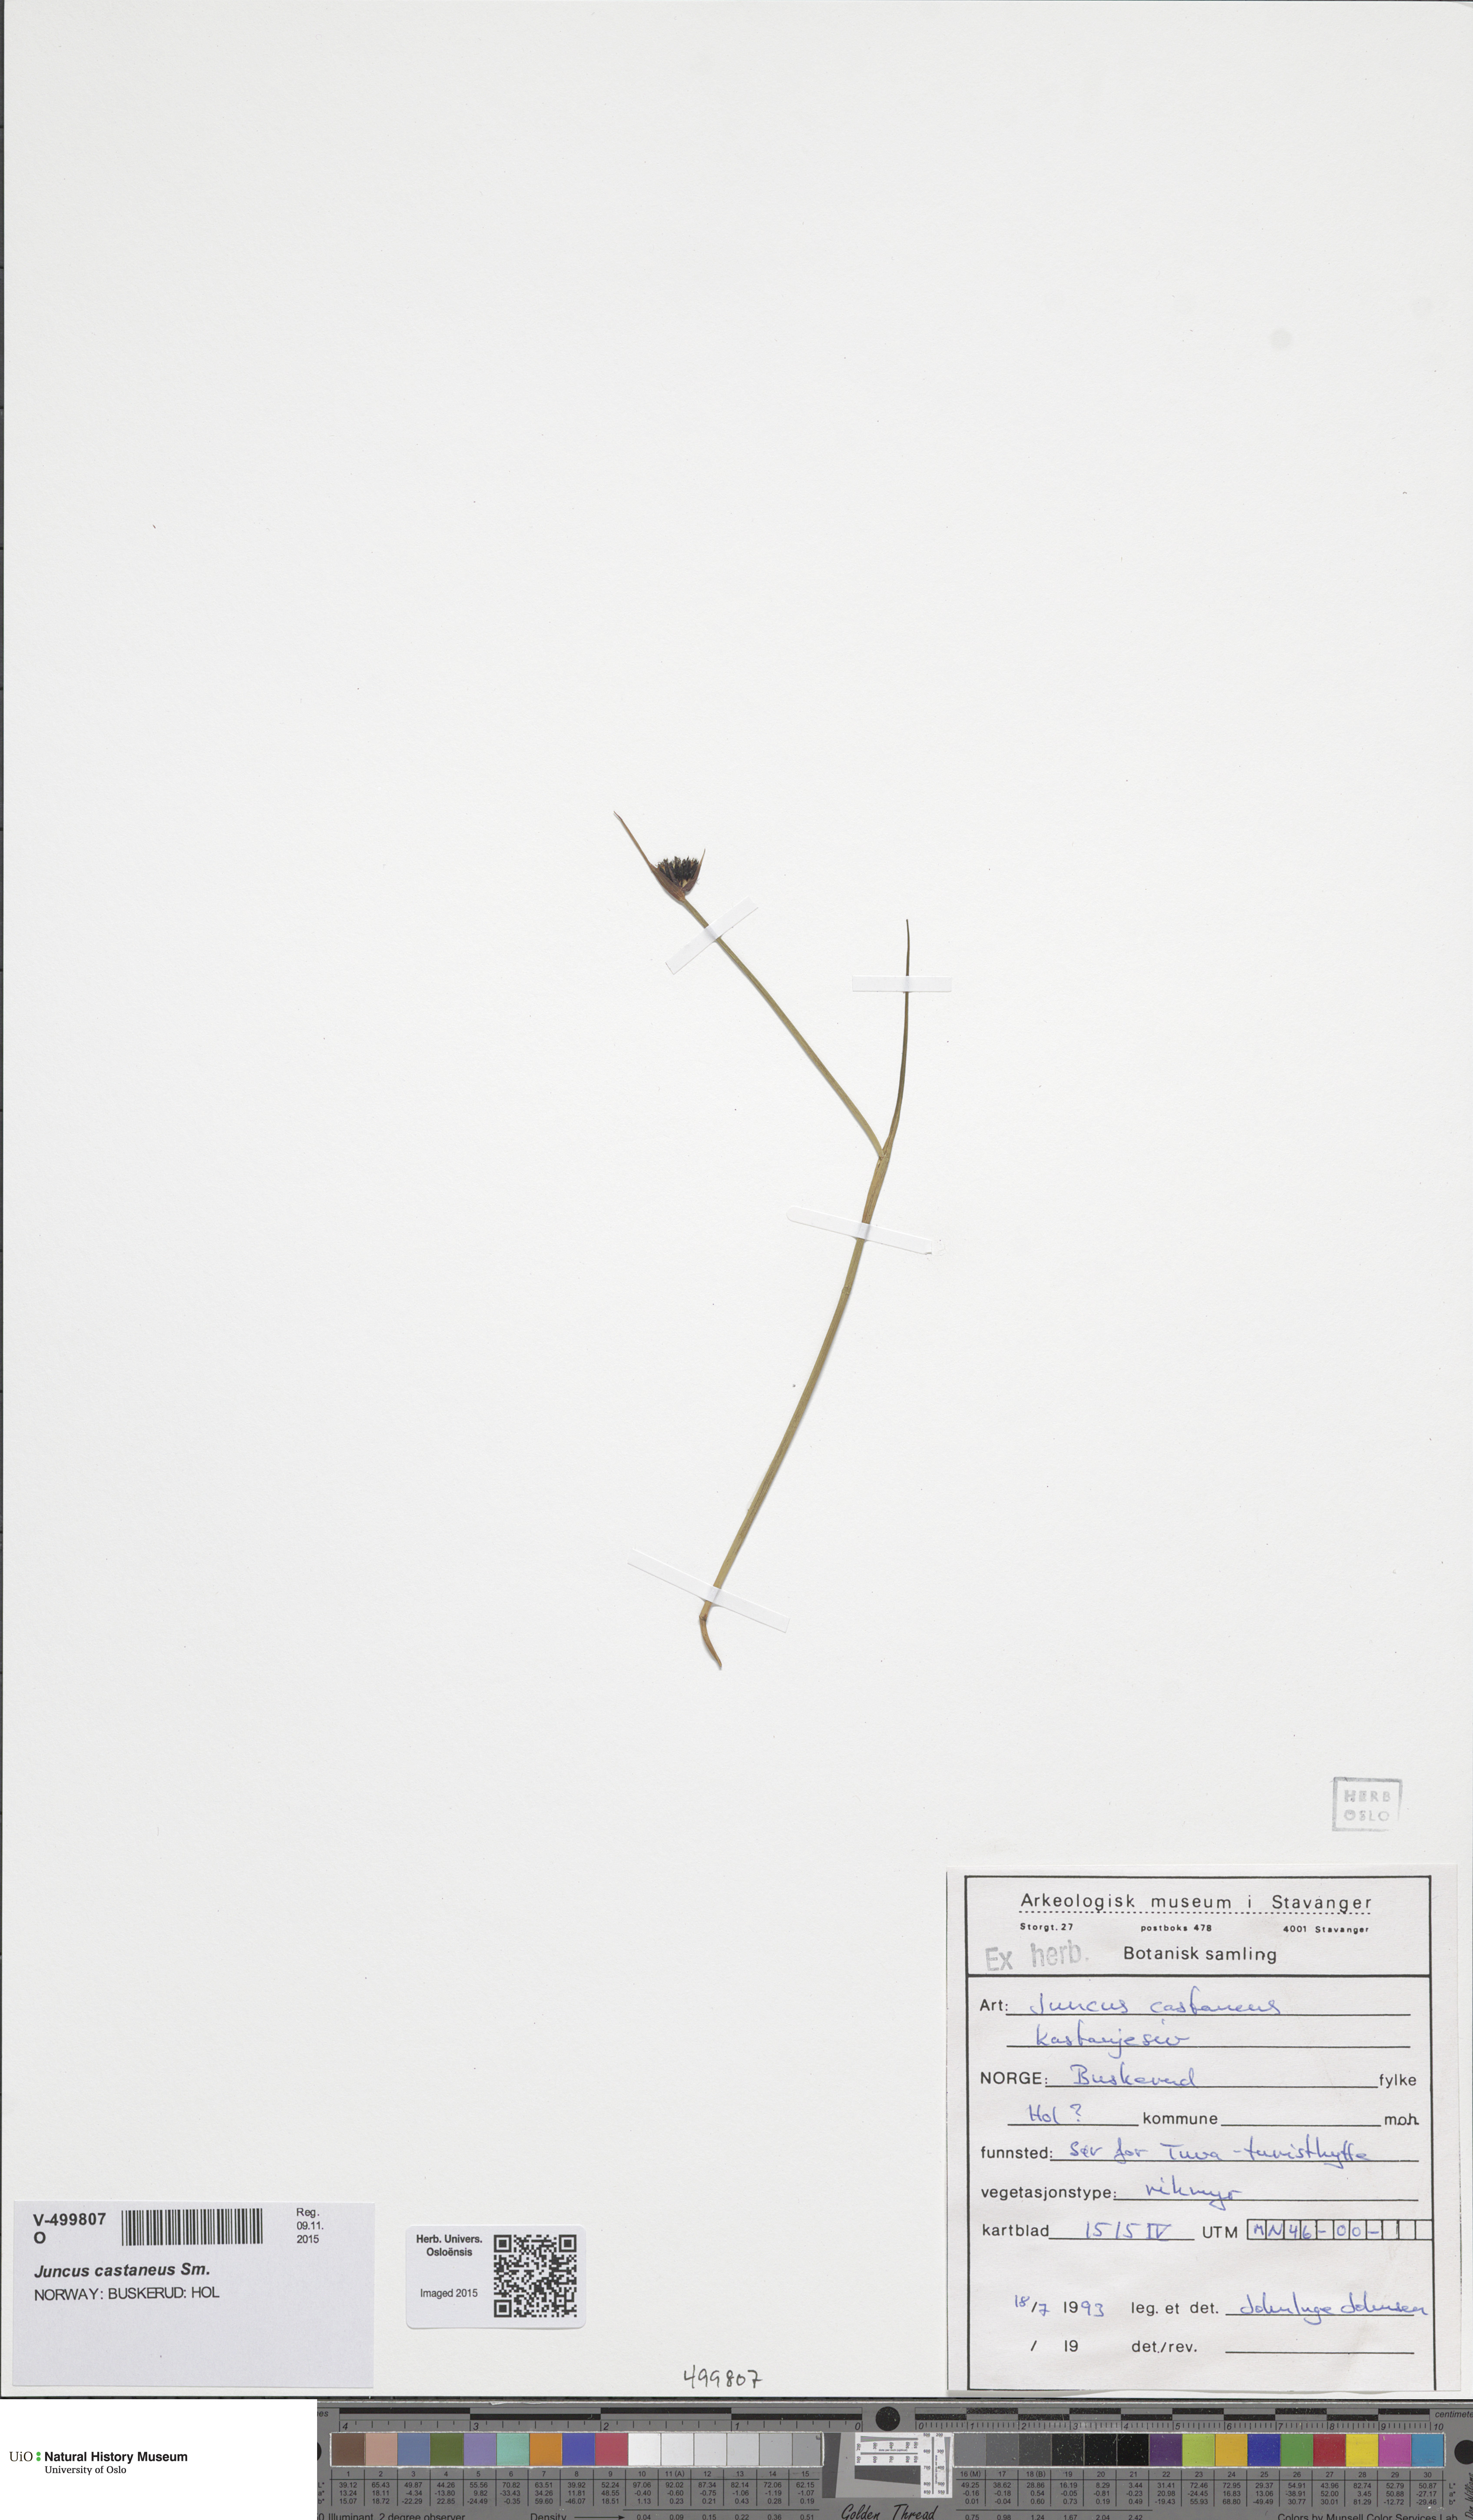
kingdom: Plantae
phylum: Tracheophyta
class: Liliopsida
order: Poales
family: Juncaceae
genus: Juncus
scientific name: Juncus castaneus
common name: Chestnut rush
